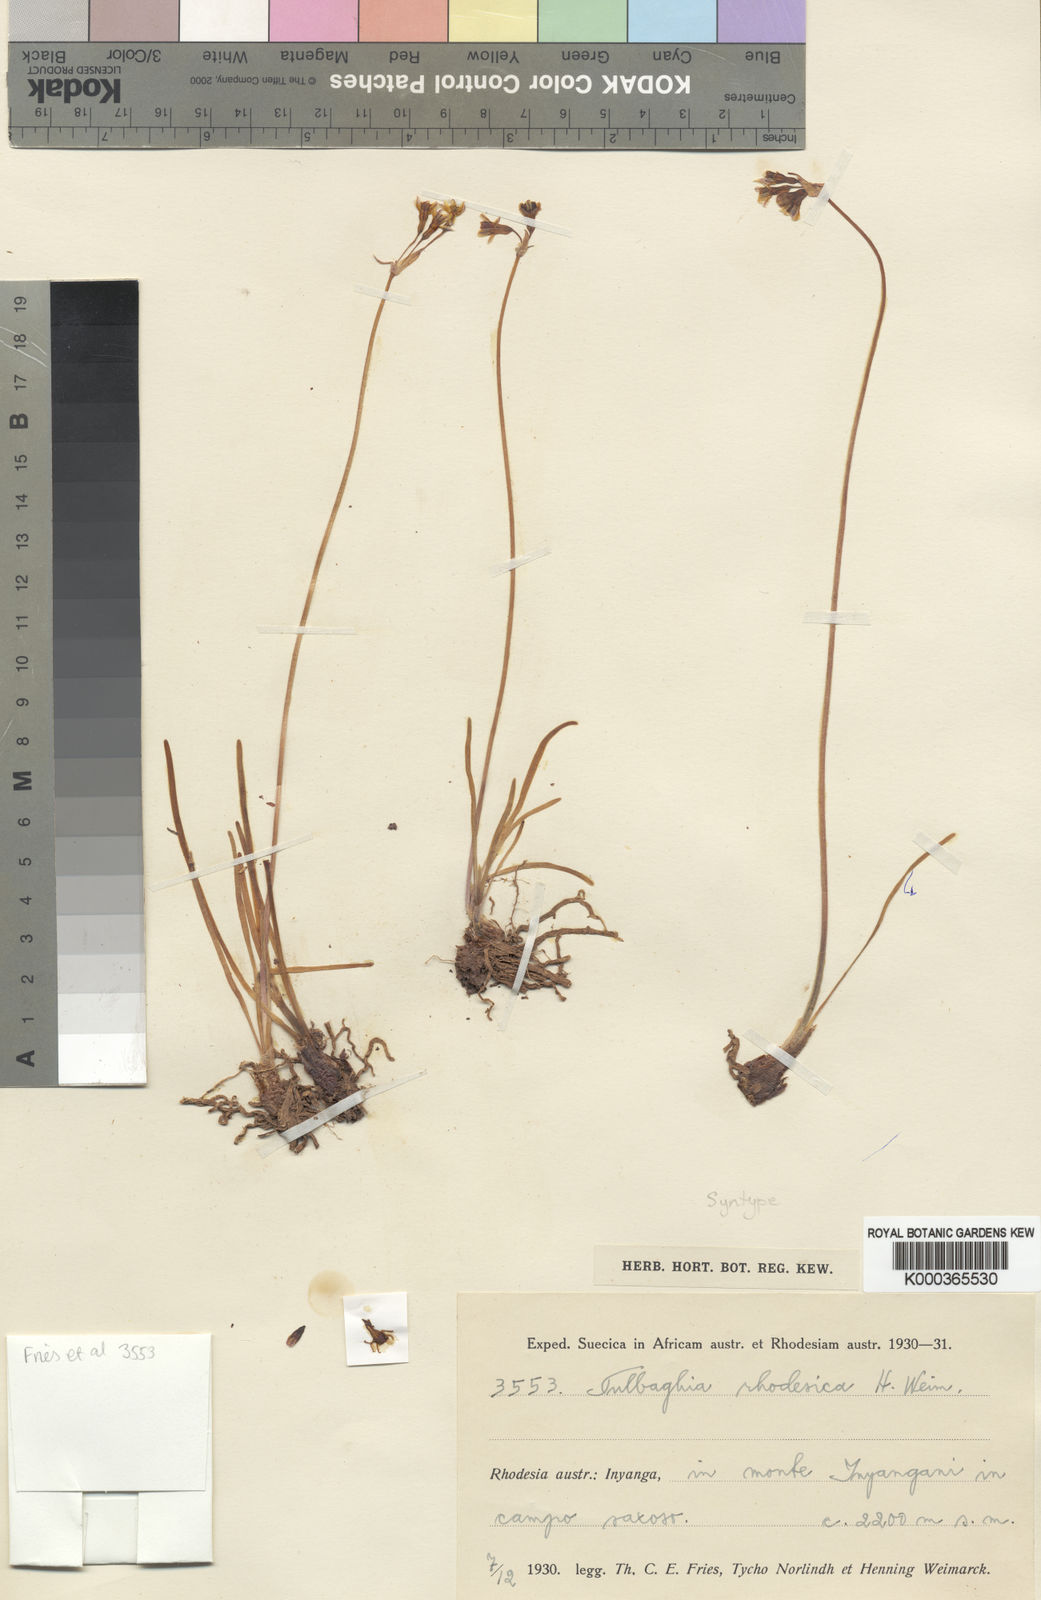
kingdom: Plantae
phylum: Tracheophyta
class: Liliopsida
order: Asparagales
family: Amaryllidaceae
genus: Tulbaghia
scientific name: Tulbaghia friesii
